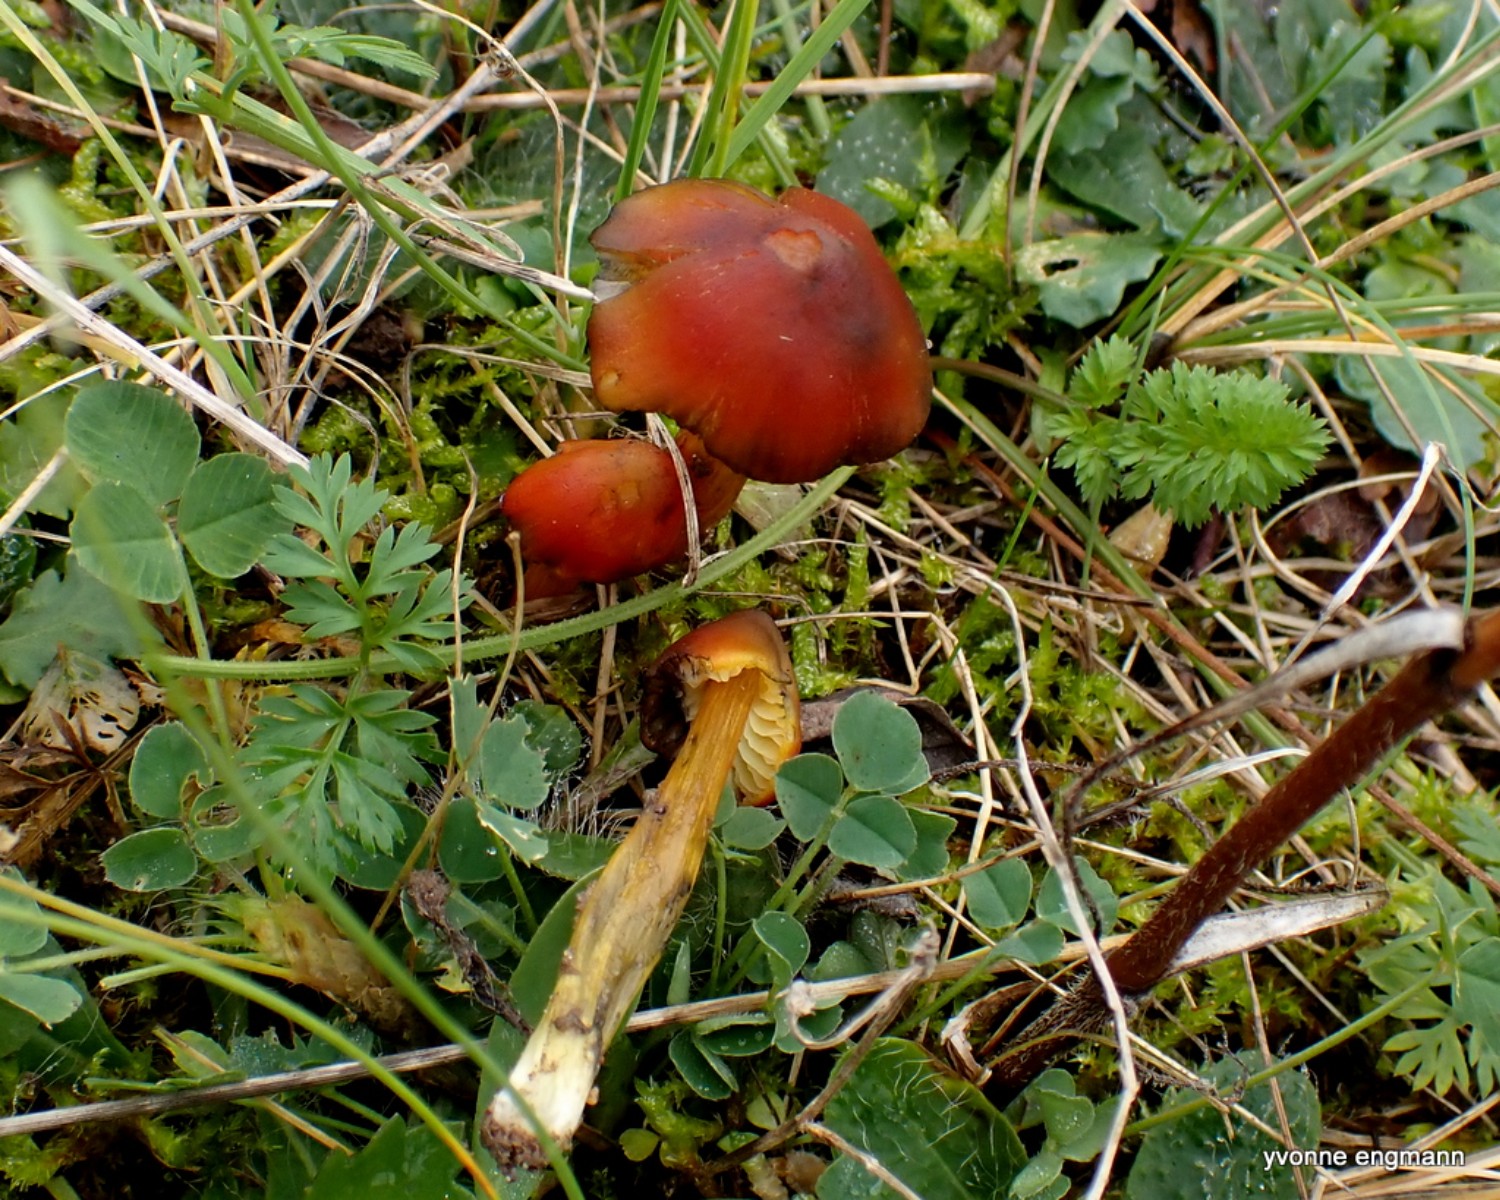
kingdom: Fungi
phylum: Basidiomycota
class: Agaricomycetes
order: Agaricales
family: Hygrophoraceae
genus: Hygrocybe
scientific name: Hygrocybe conica
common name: kegle-vokshat
